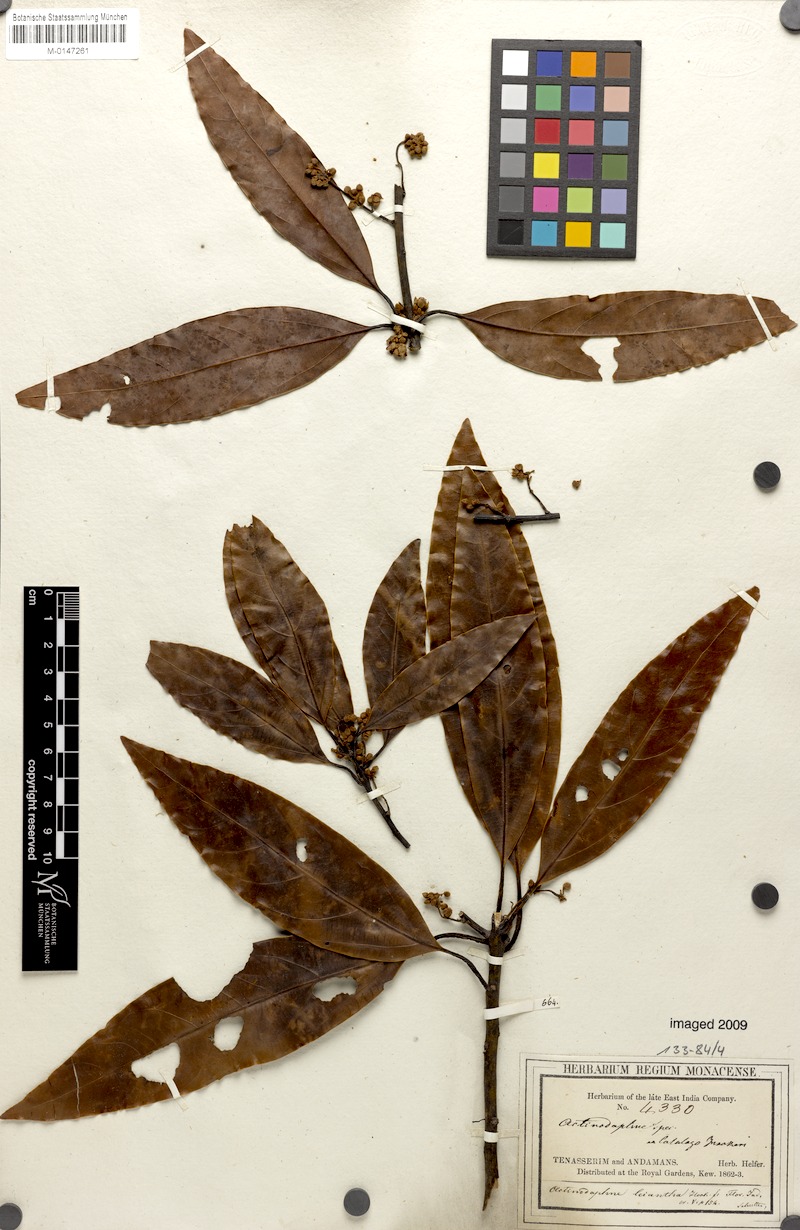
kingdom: Plantae
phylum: Tracheophyta
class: Magnoliopsida
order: Laurales
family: Lauraceae
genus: Actinodaphne
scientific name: Actinodaphne leiophylla
